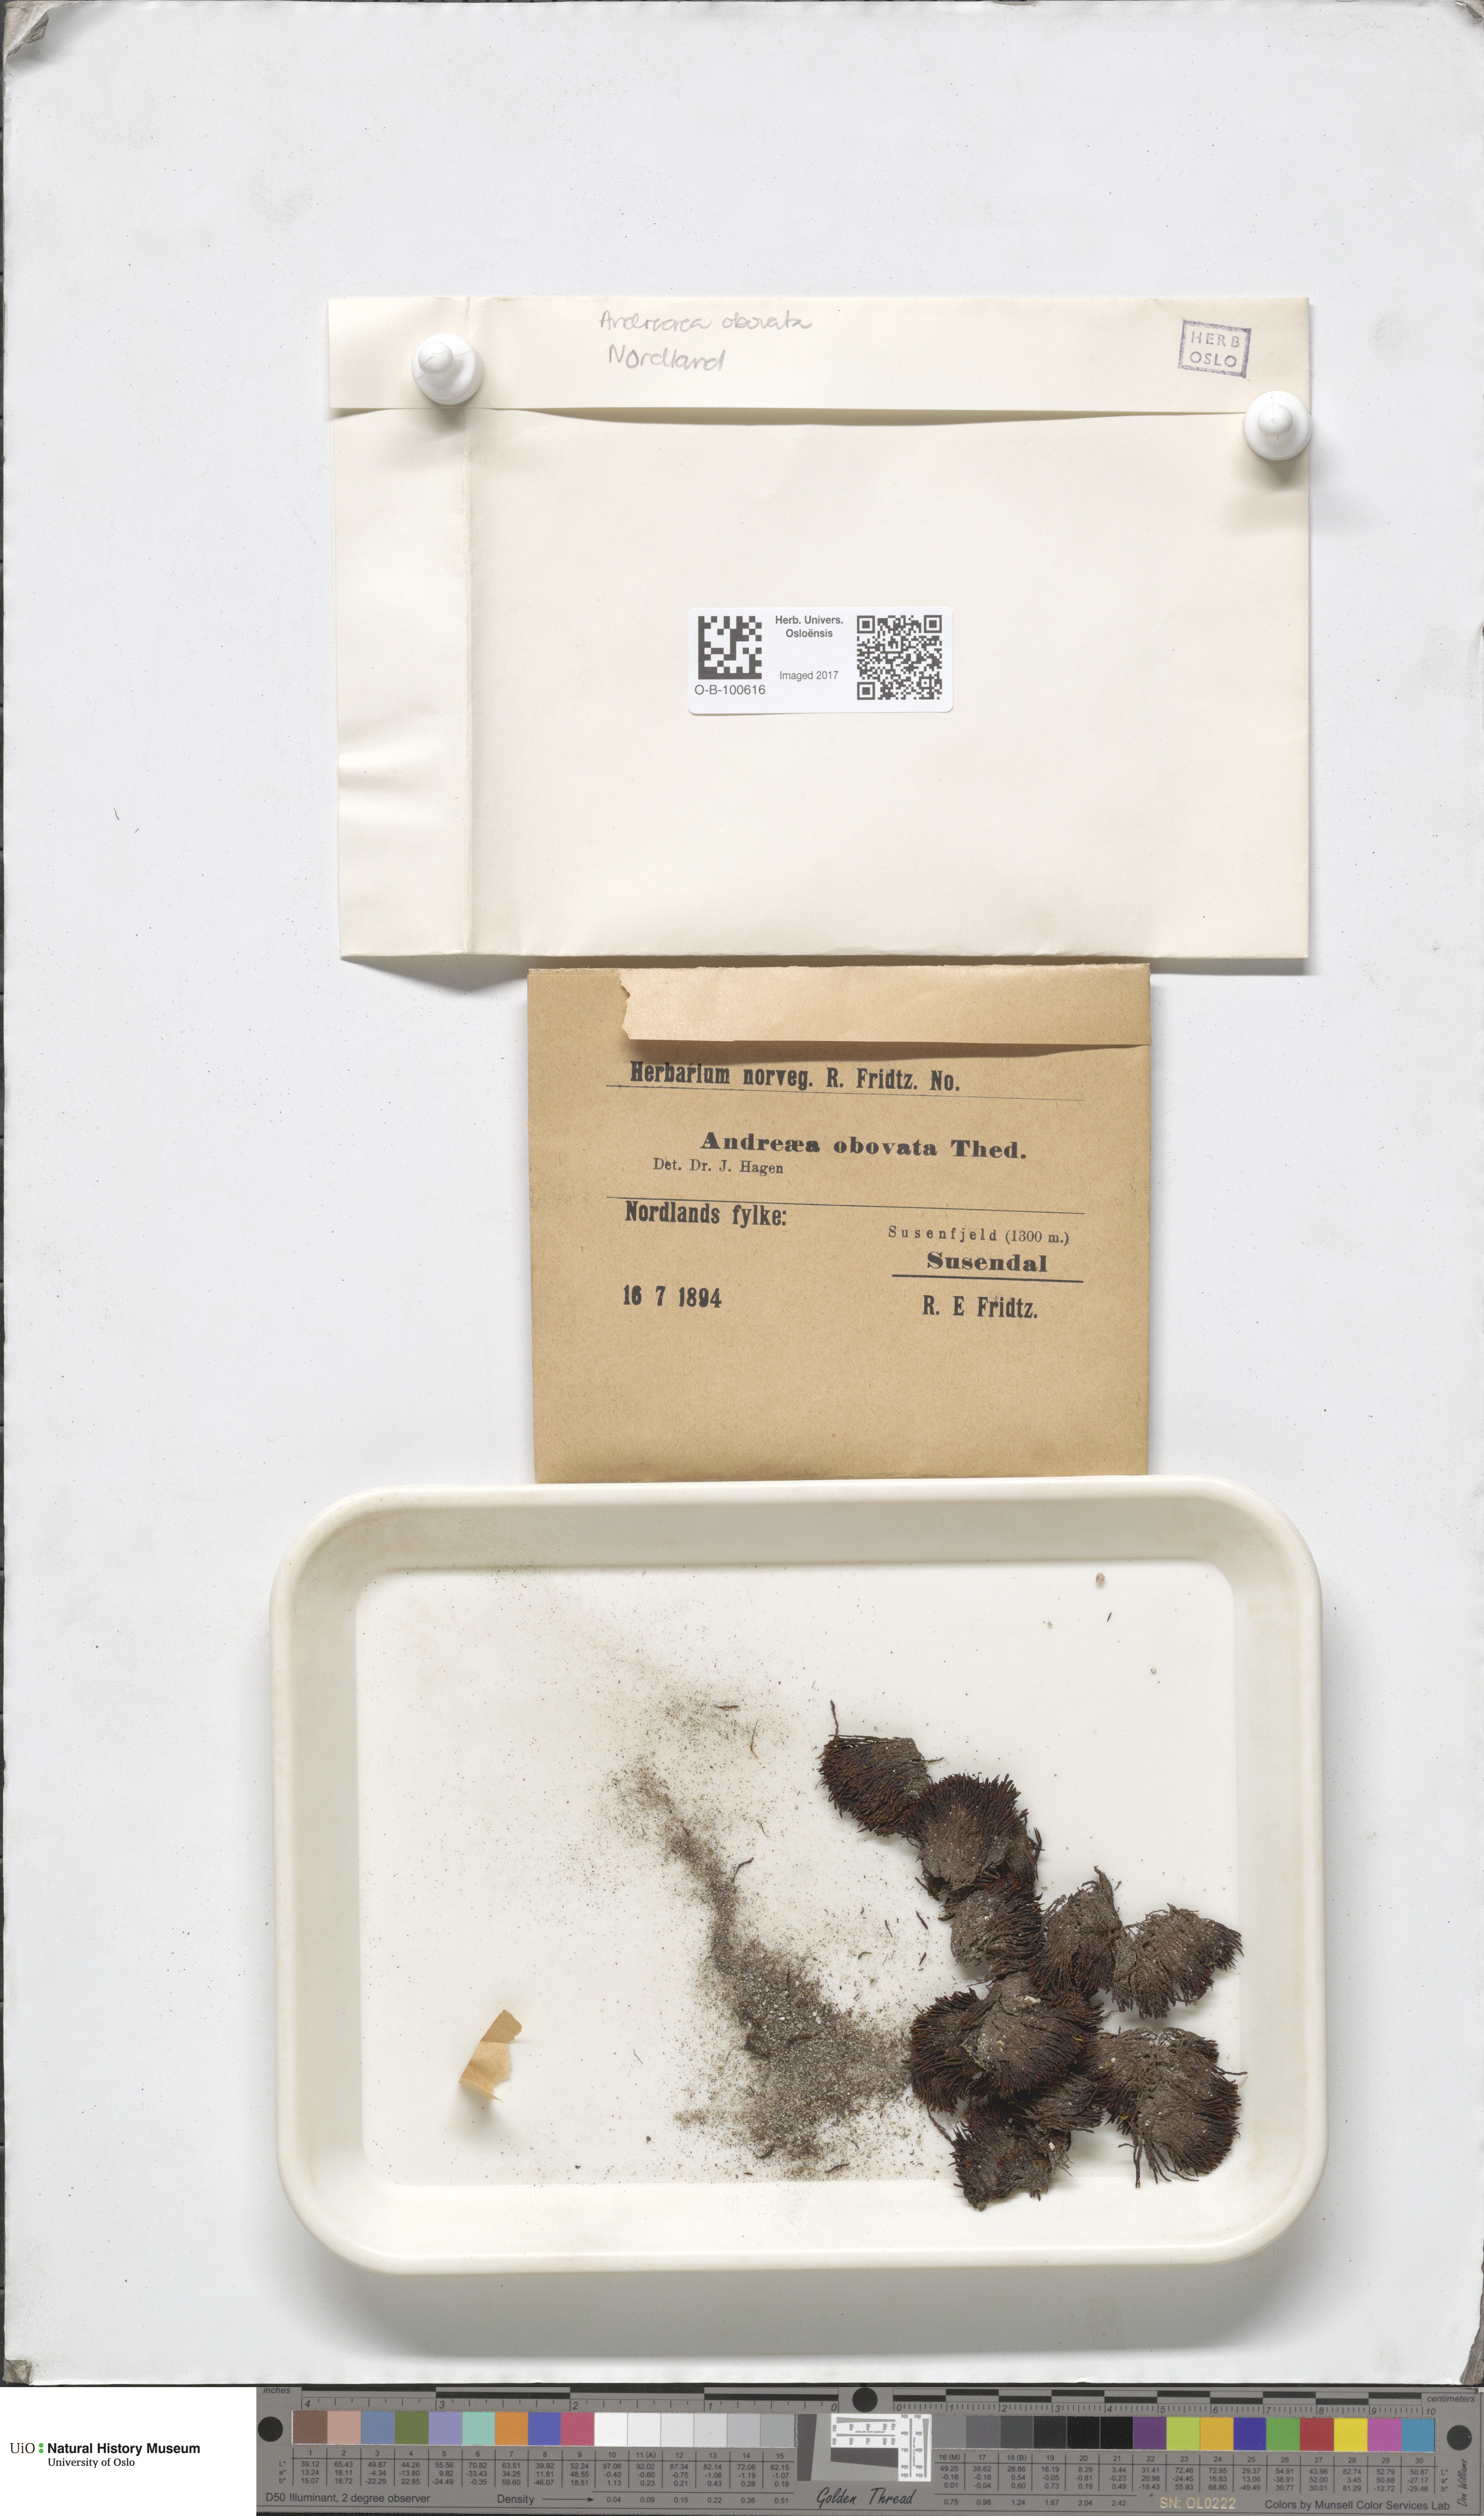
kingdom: Plantae
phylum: Bryophyta
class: Andreaeopsida
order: Andreaeales
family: Andreaeaceae
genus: Andreaea
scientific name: Andreaea alpina
